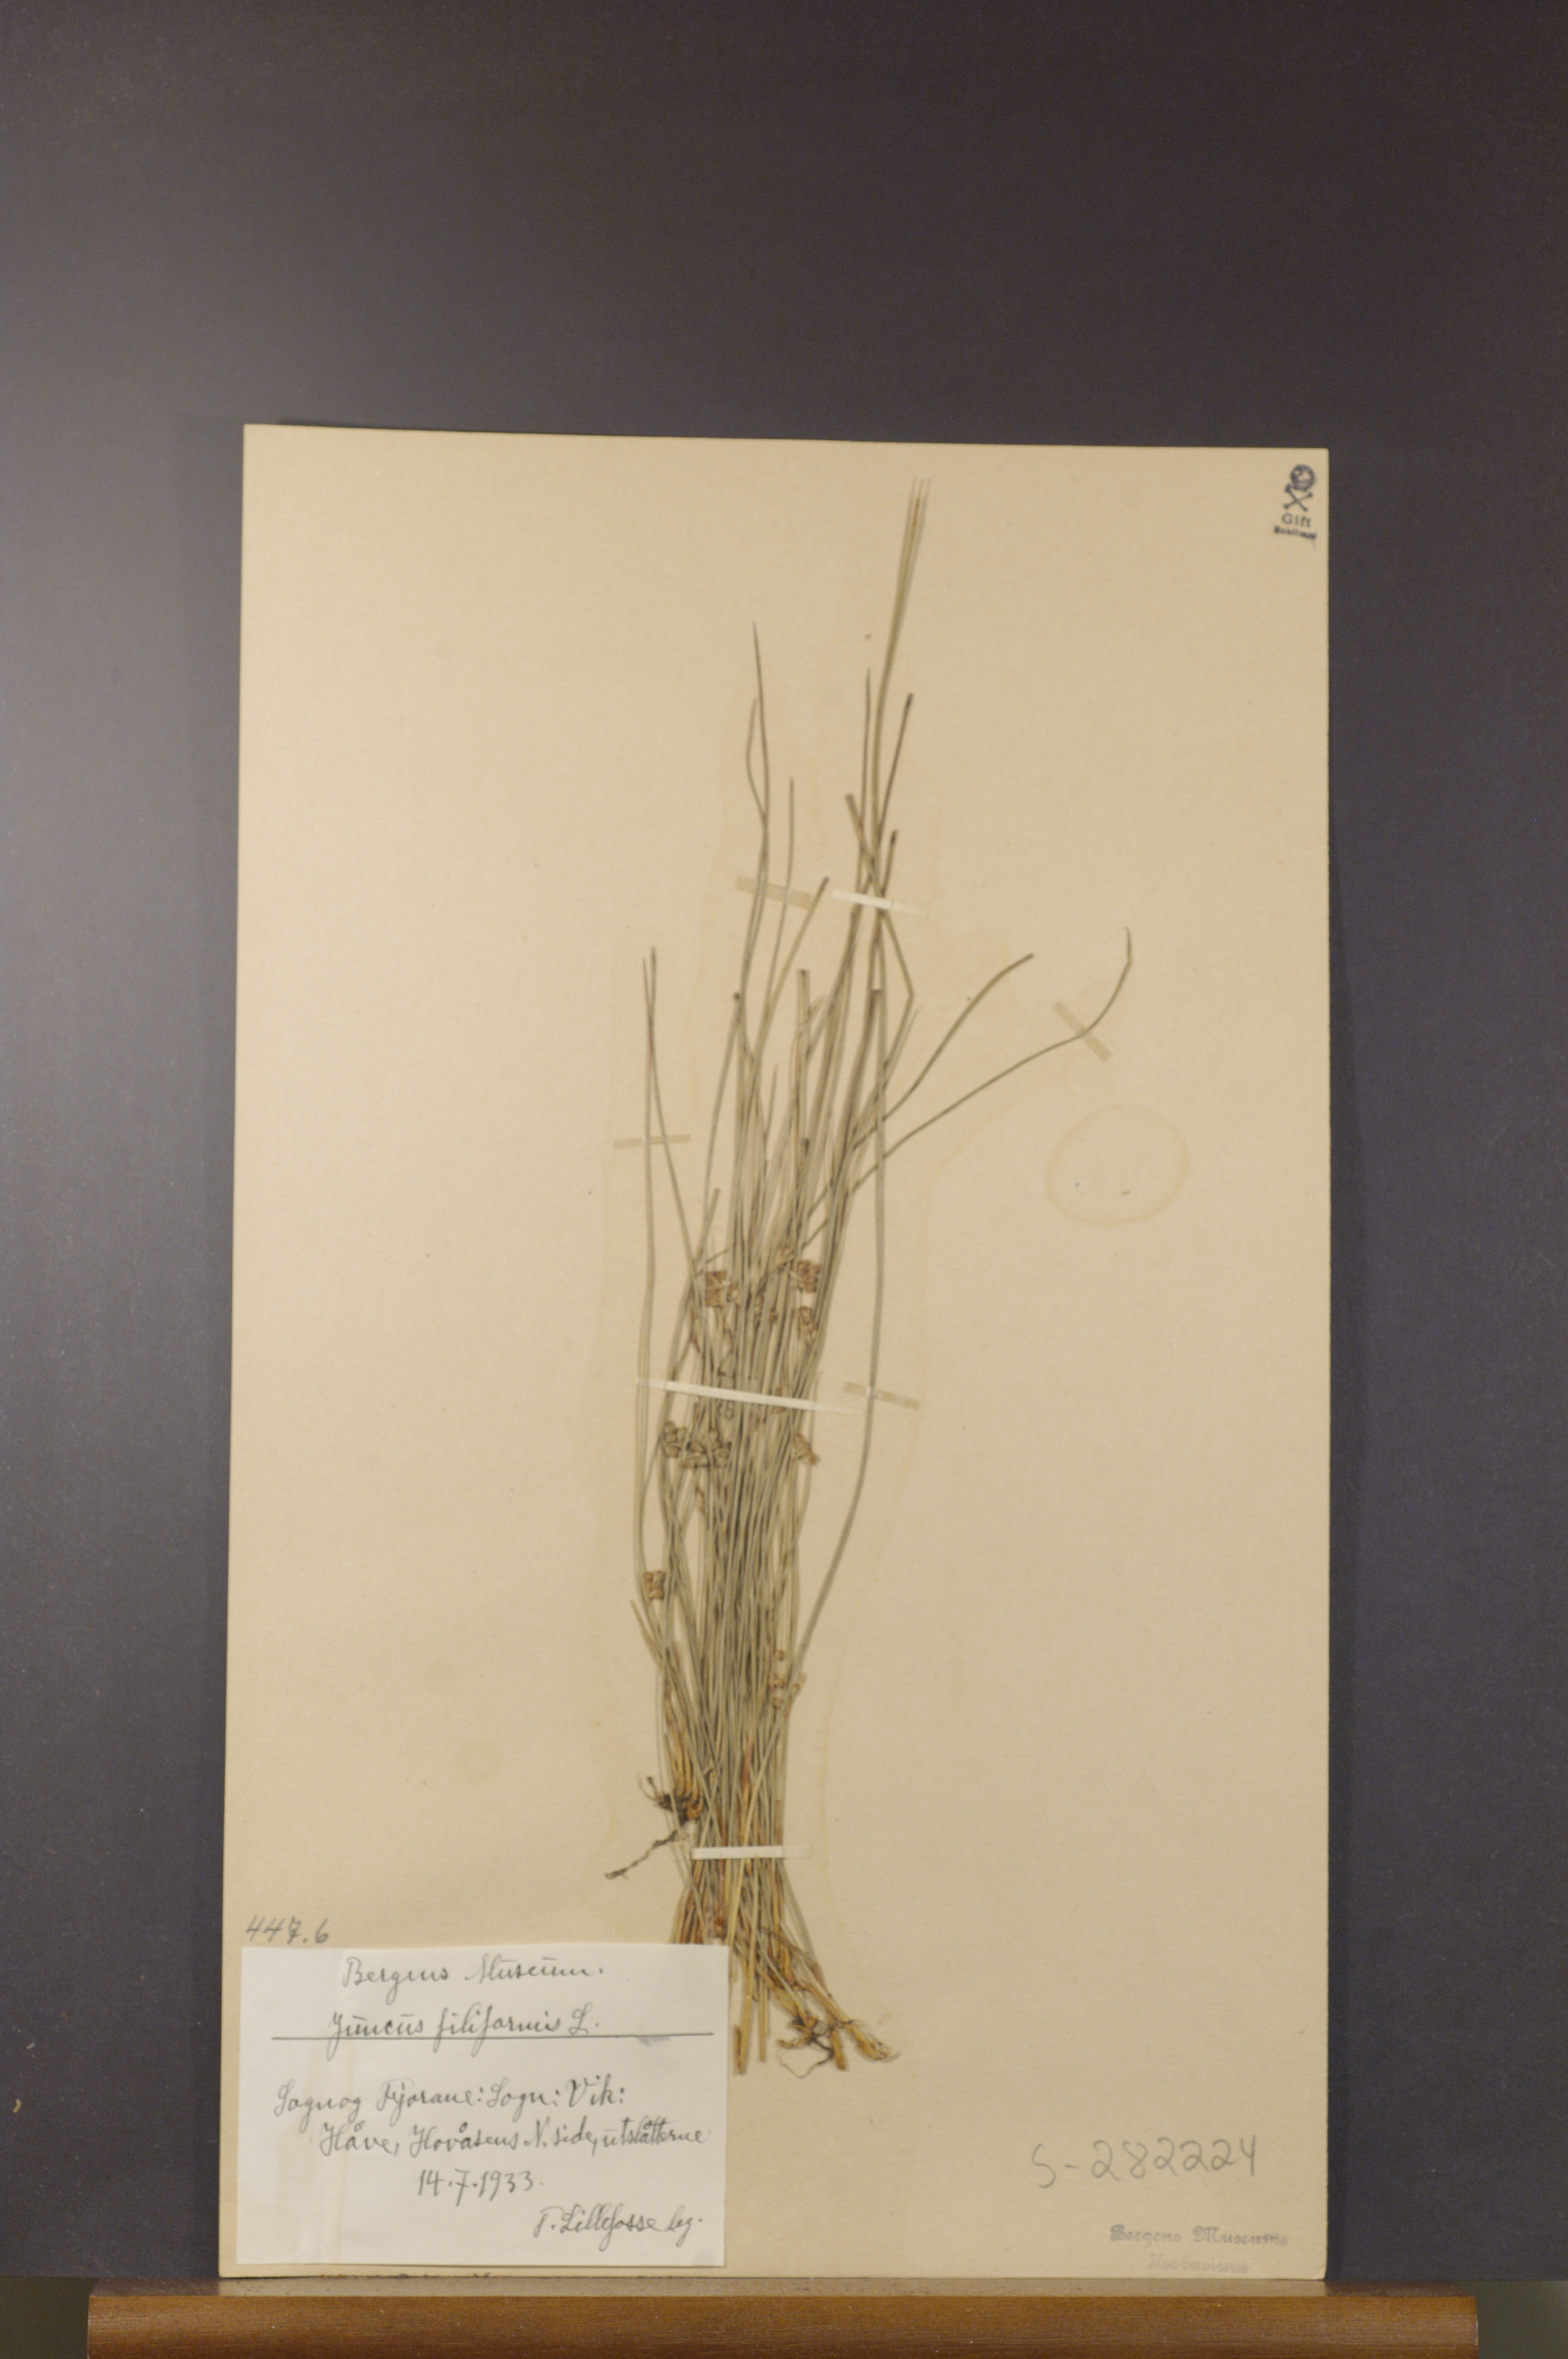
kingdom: Plantae
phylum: Tracheophyta
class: Liliopsida
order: Poales
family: Juncaceae
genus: Juncus
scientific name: Juncus filiformis
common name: Thread rush
